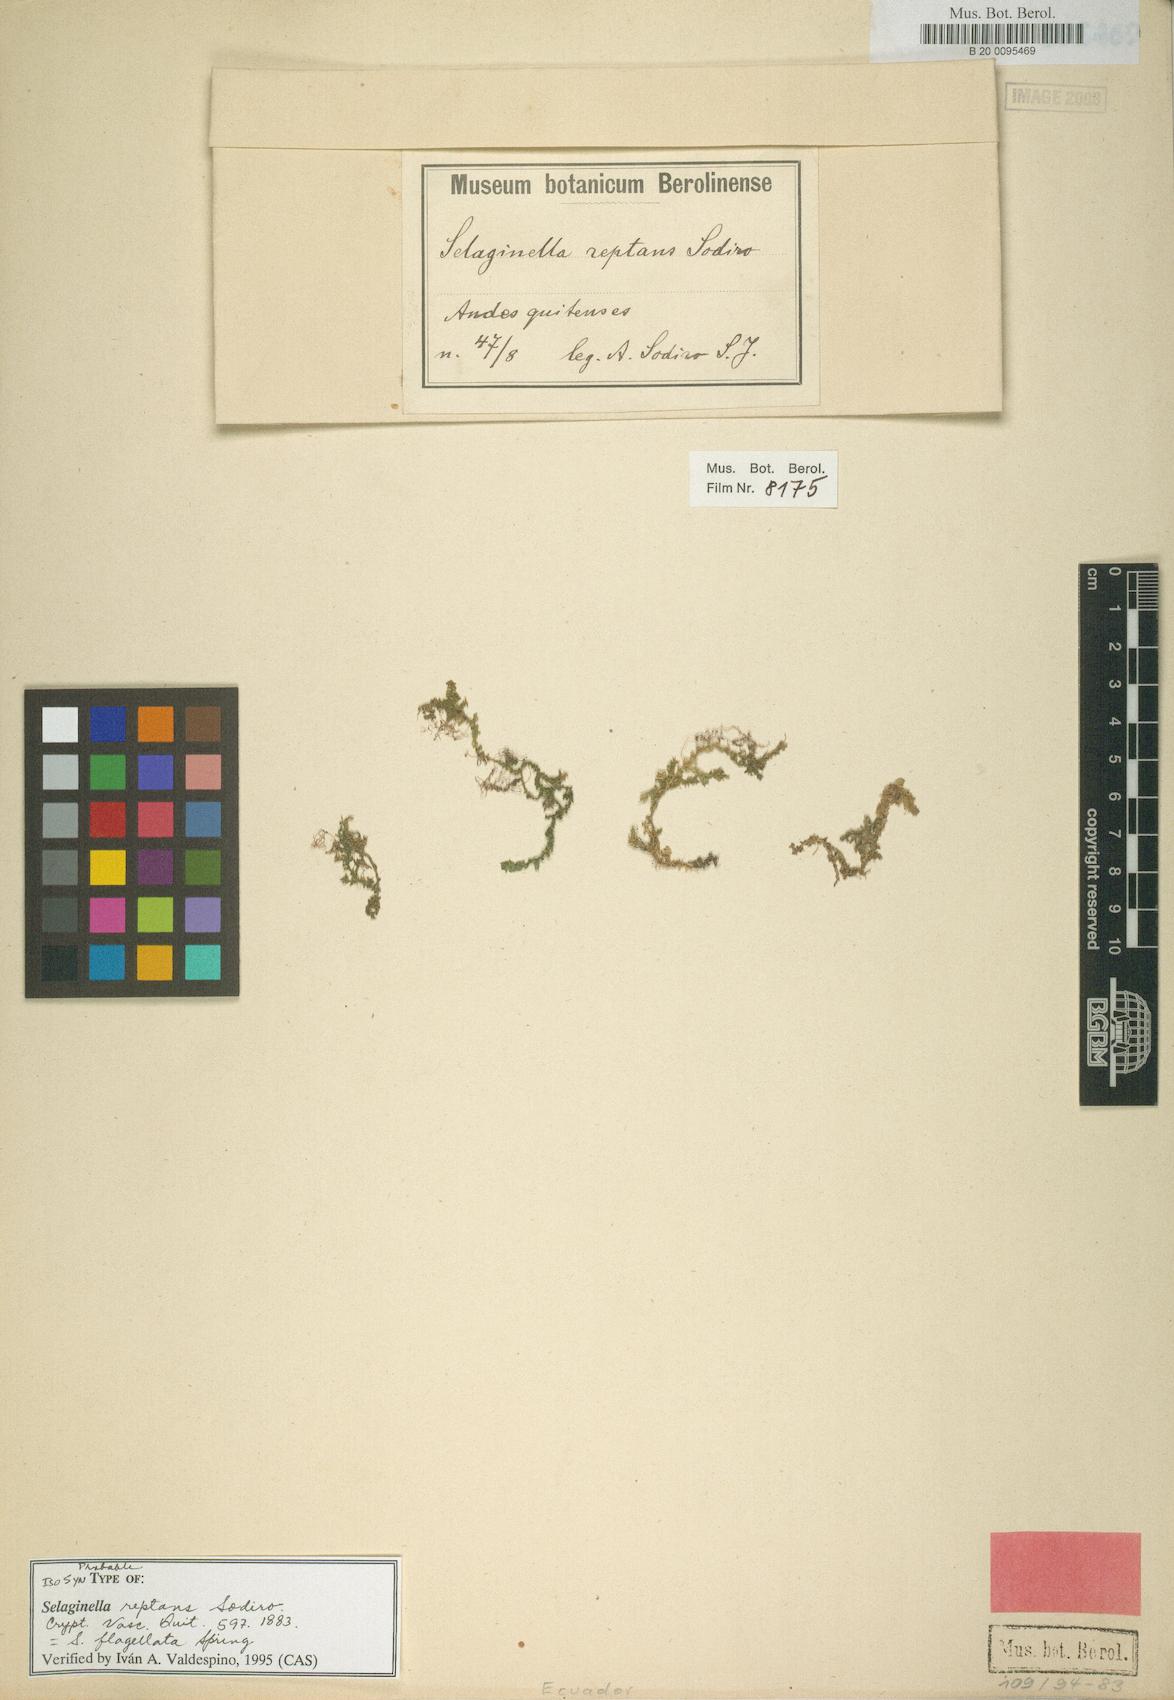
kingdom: Plantae
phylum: Tracheophyta
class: Lycopodiopsida
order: Selaginellales
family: Selaginellaceae
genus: Selaginella
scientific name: Selaginella flagellata
